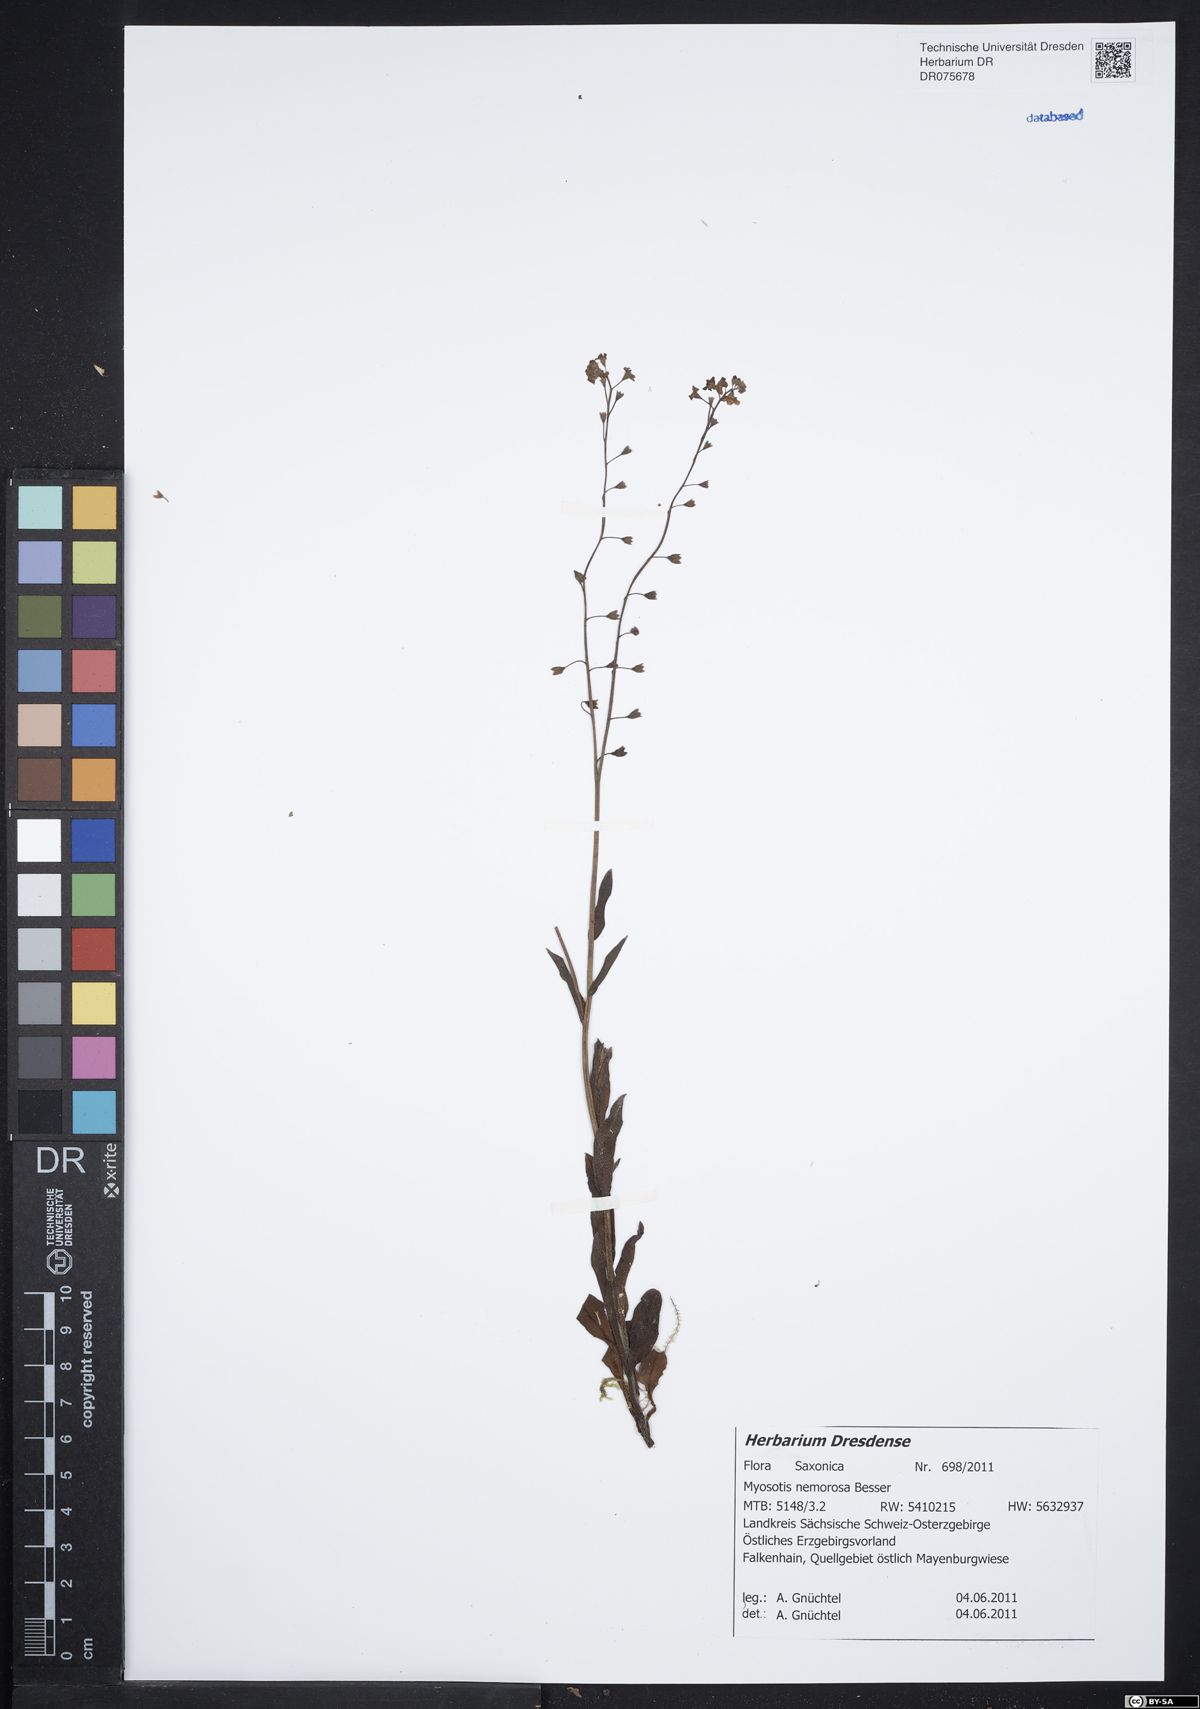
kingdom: Plantae
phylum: Tracheophyta
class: Magnoliopsida
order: Boraginales
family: Boraginaceae
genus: Myosotis
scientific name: Myosotis nemorosa
